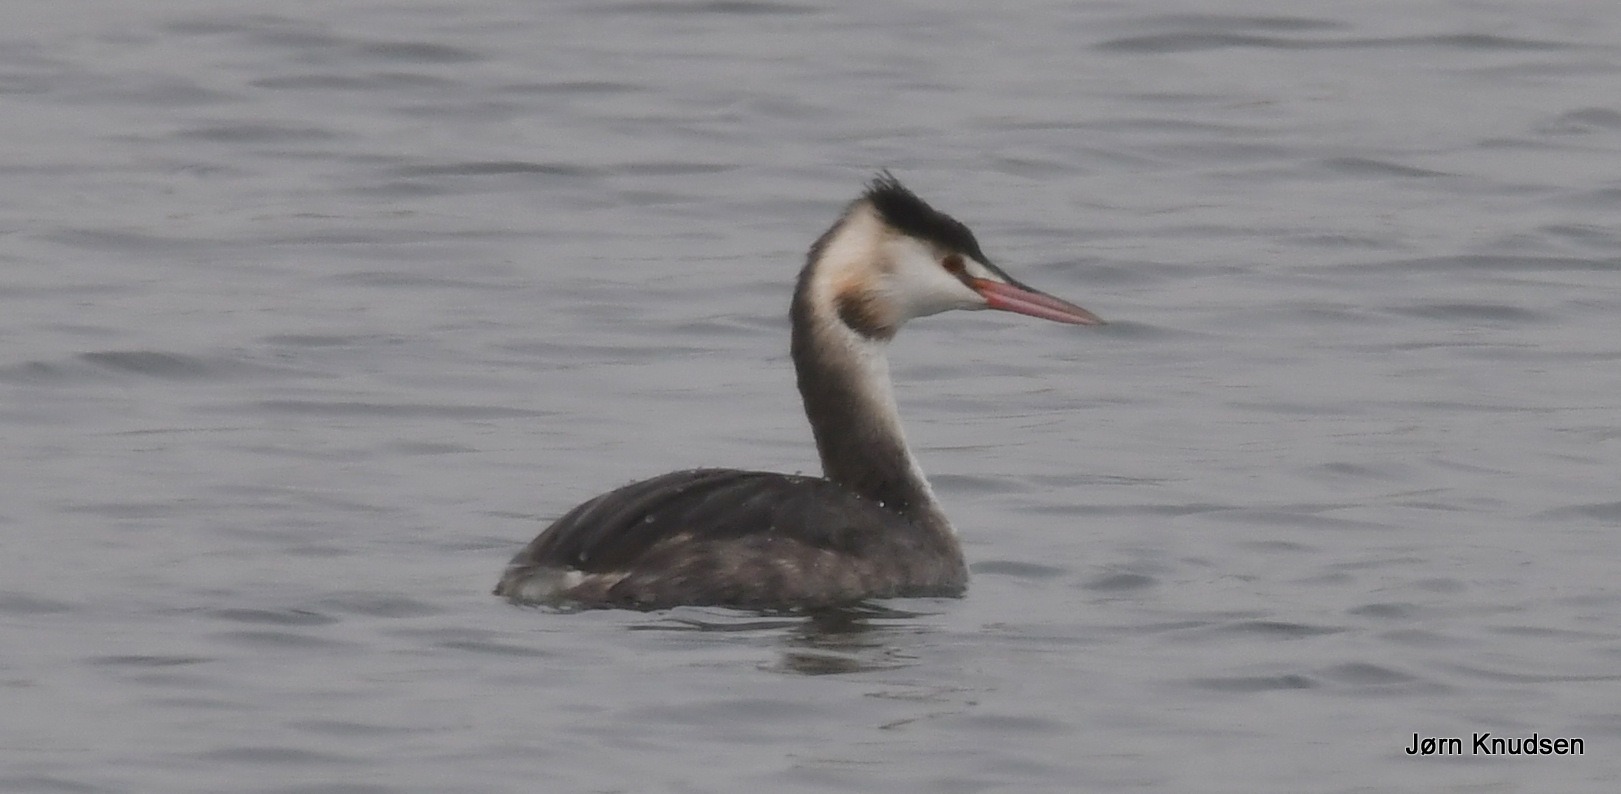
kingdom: Animalia
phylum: Chordata
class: Aves
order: Podicipediformes
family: Podicipedidae
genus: Podiceps
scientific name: Podiceps cristatus
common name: Toppet lappedykker
